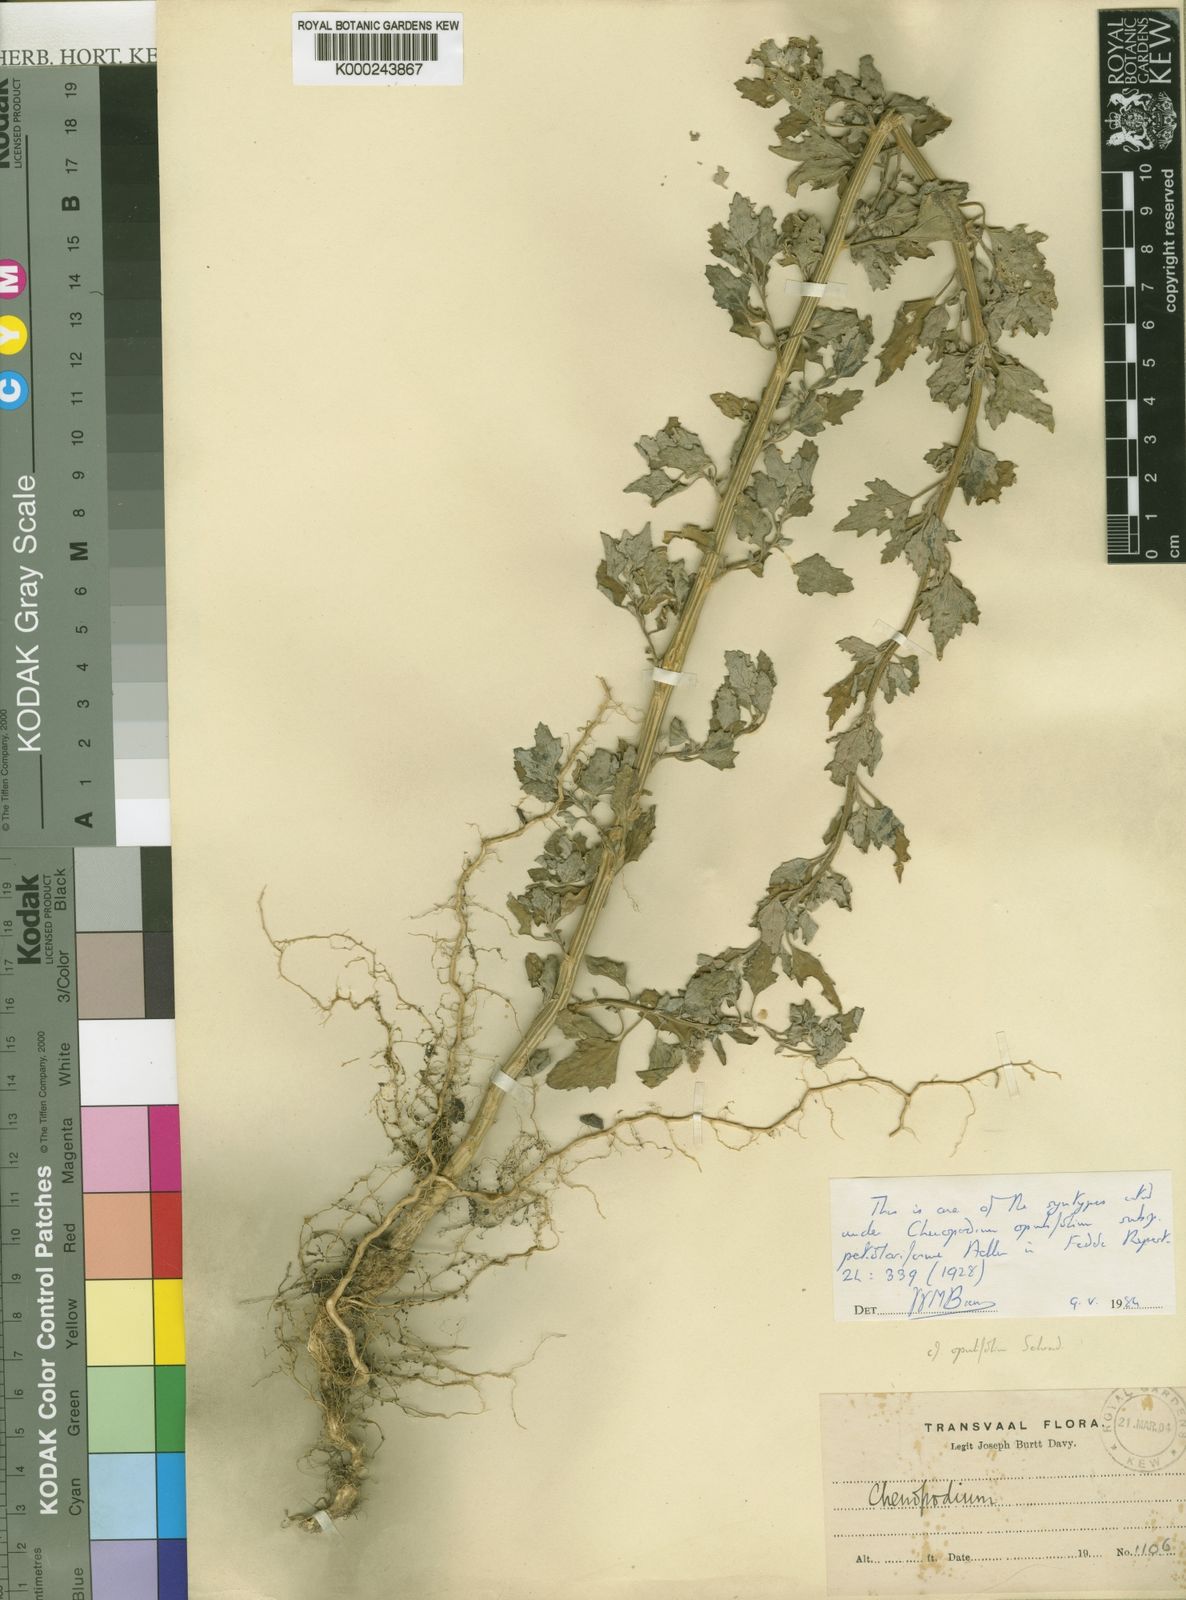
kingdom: Plantae
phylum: Tracheophyta
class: Magnoliopsida
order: Caryophyllales
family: Amaranthaceae
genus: Chenopodium
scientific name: Chenopodium
